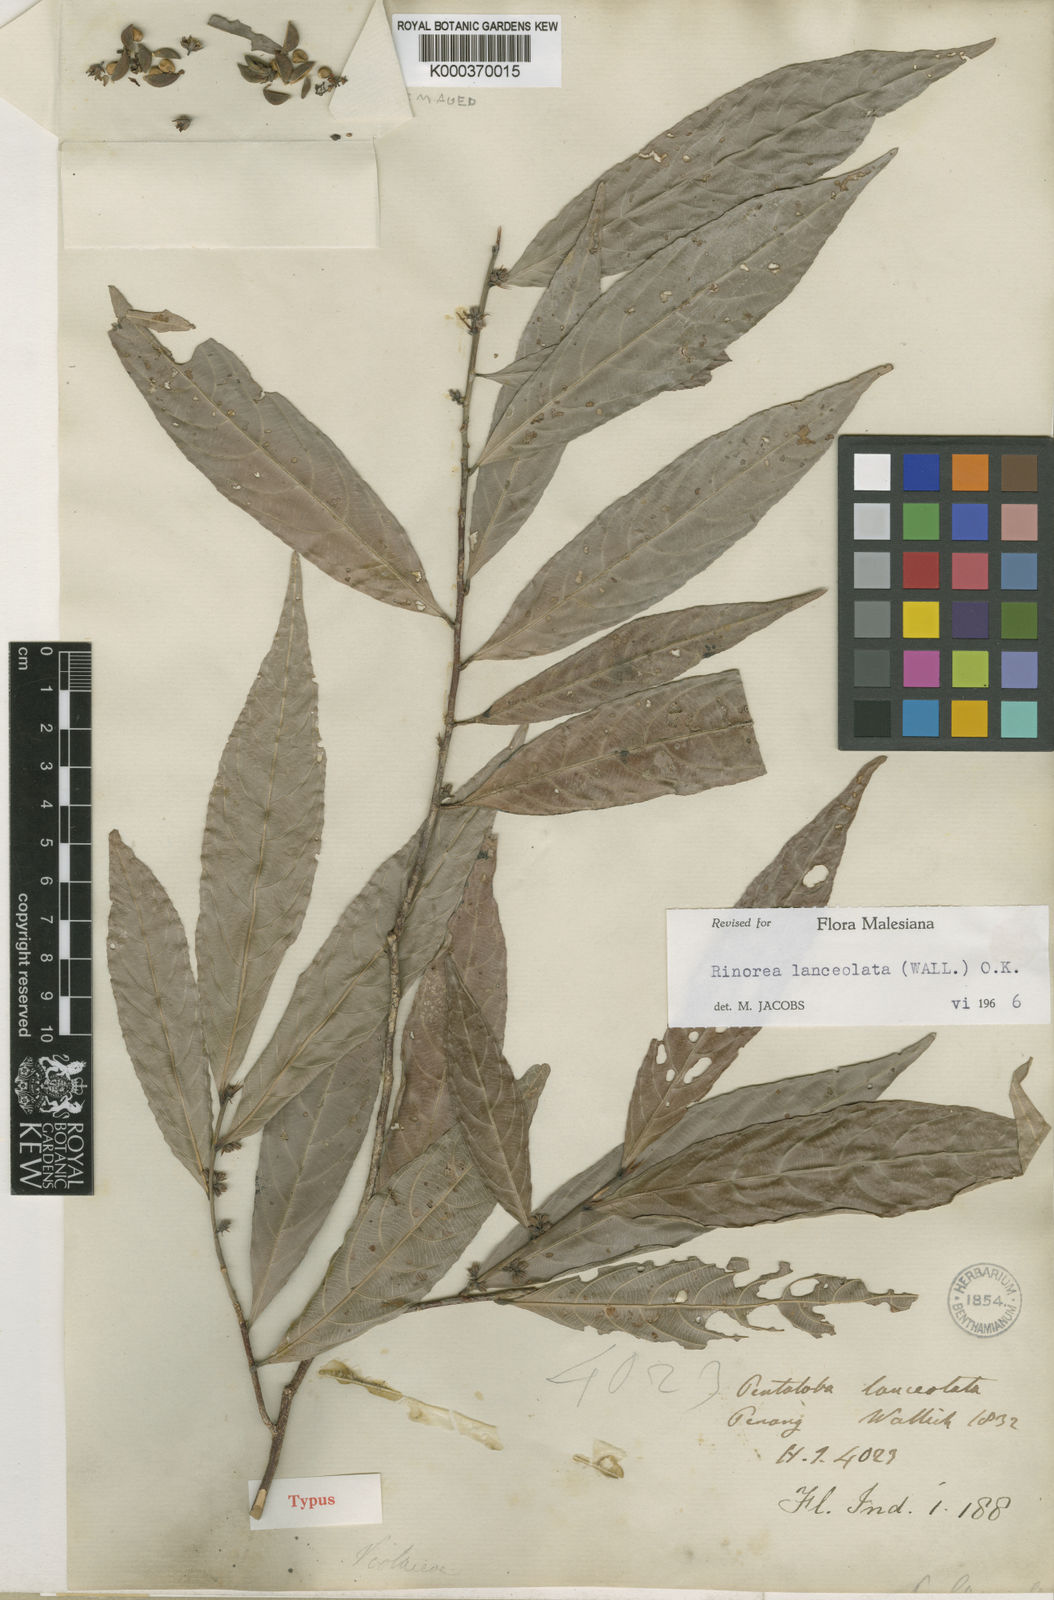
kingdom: Plantae
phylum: Tracheophyta
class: Magnoliopsida
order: Malpighiales
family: Violaceae
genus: Rinorea
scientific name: Rinorea lanceolata
